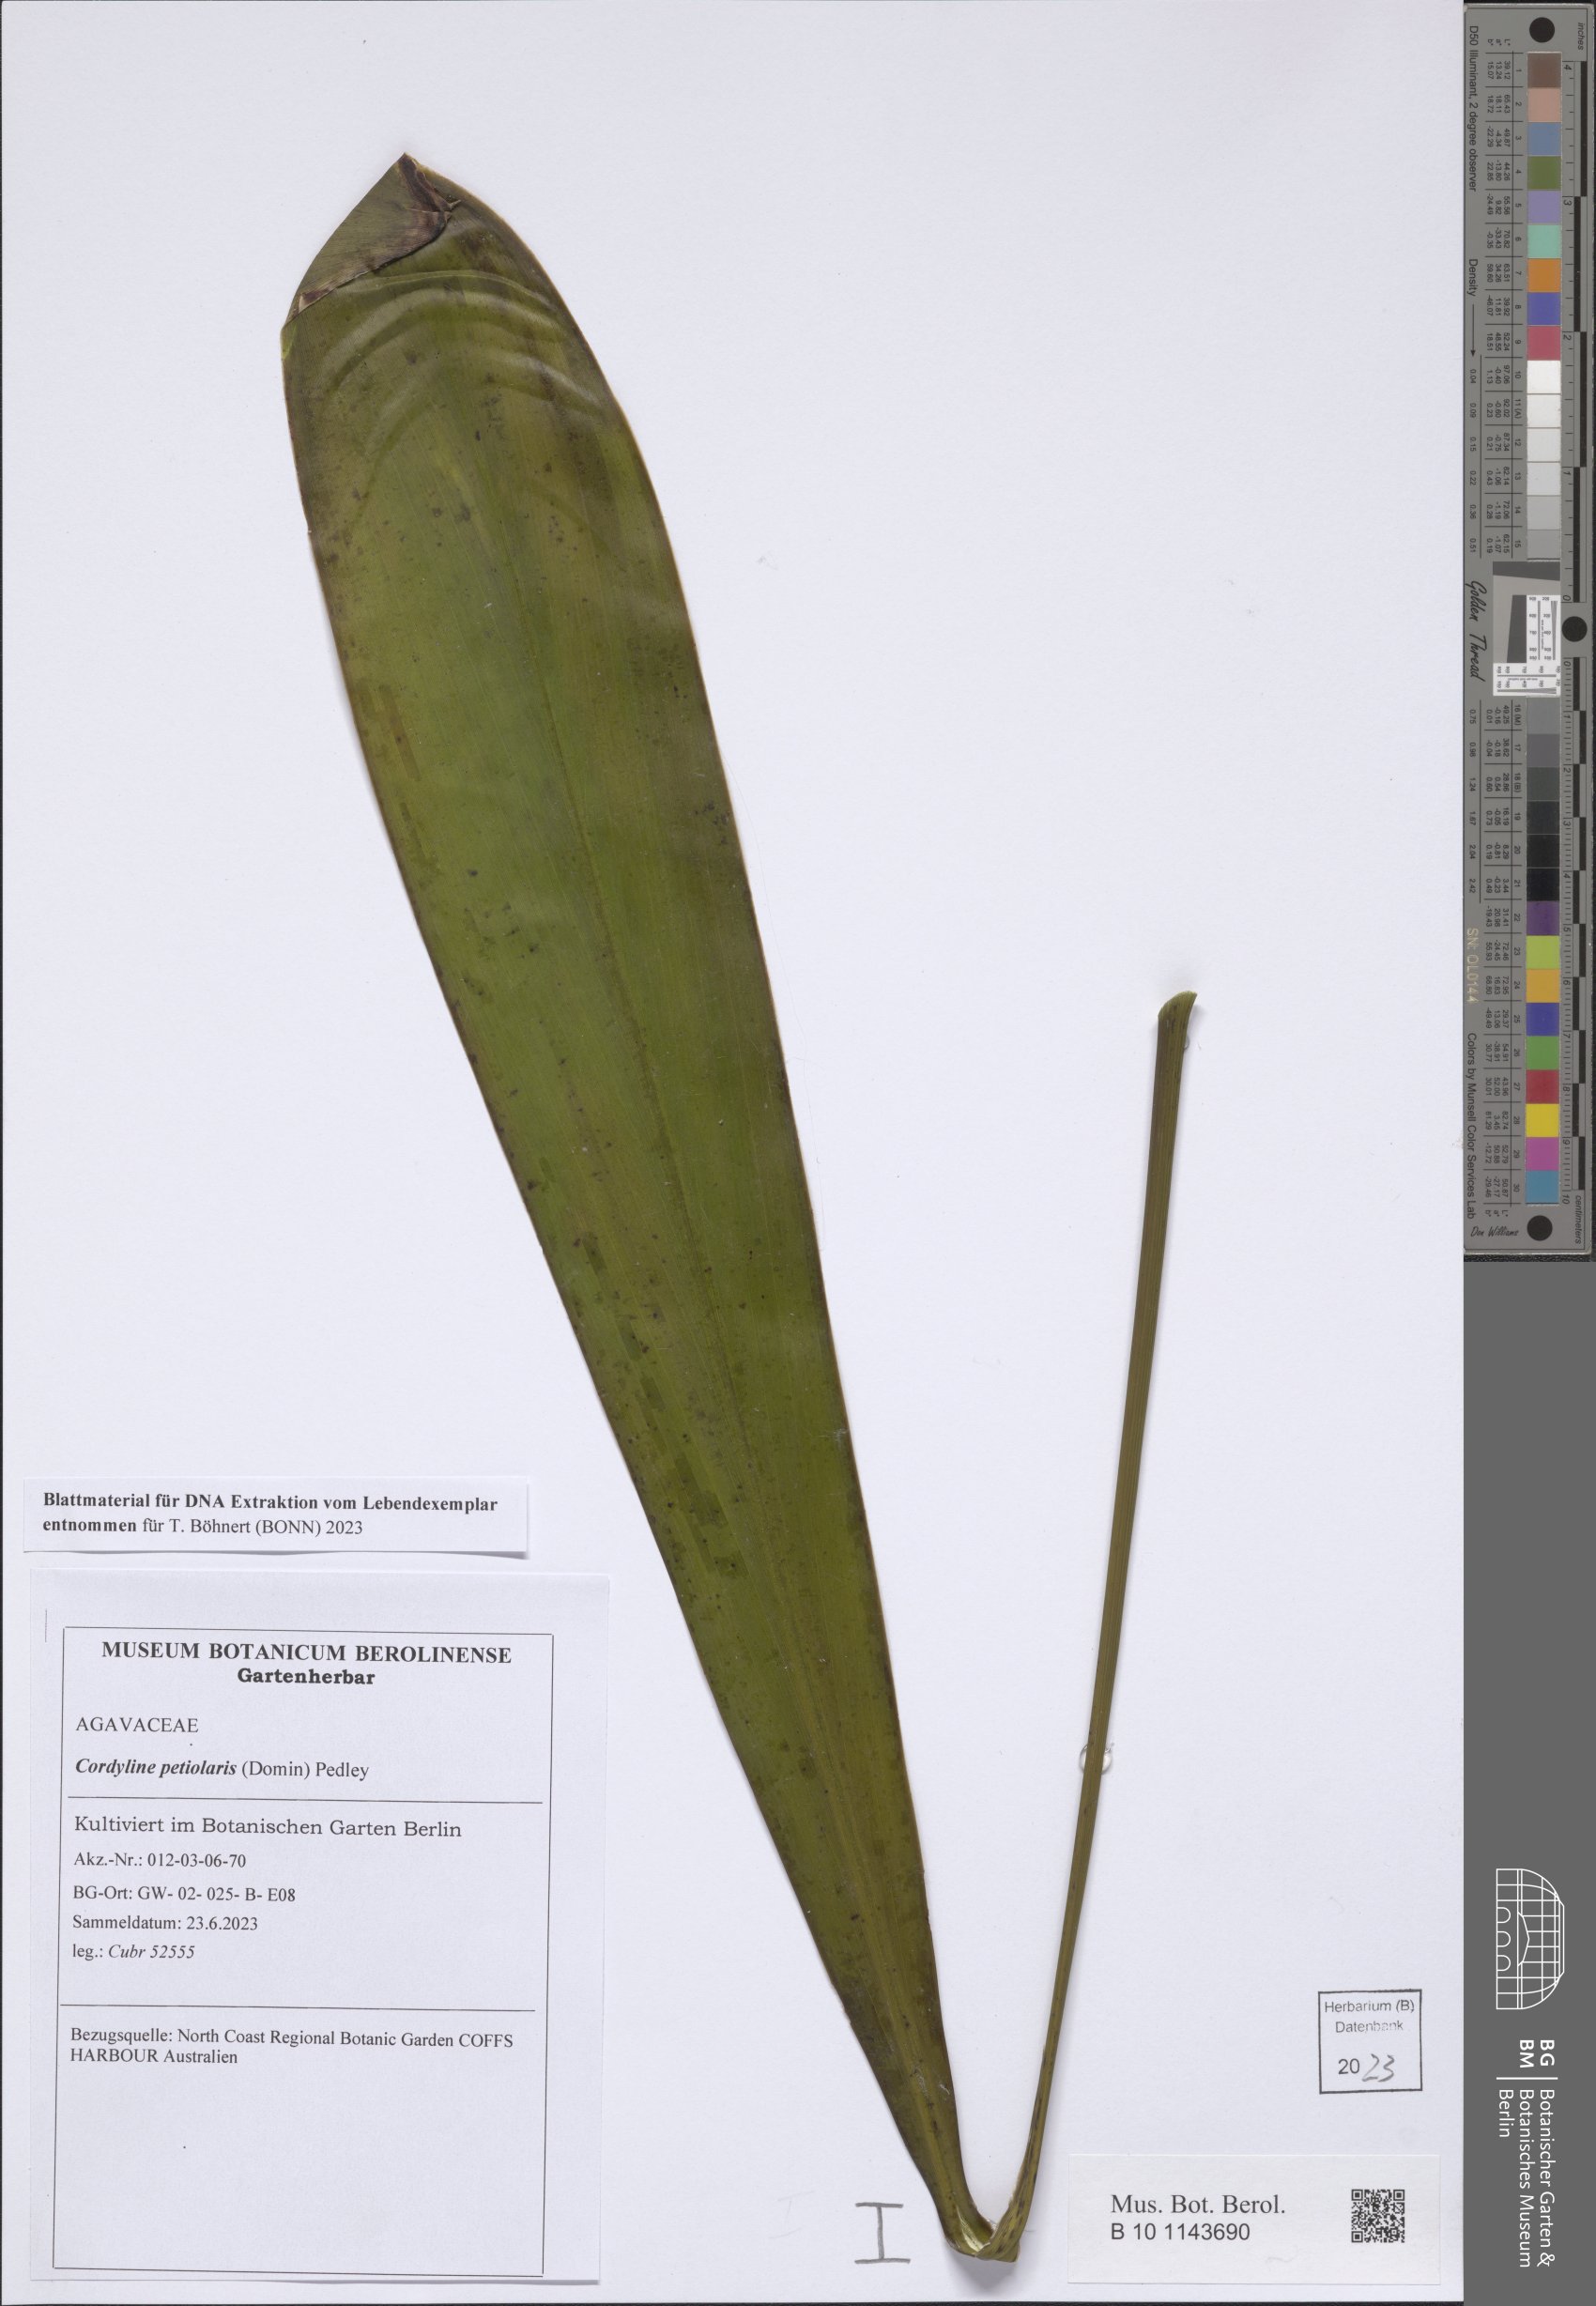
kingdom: Plantae
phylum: Tracheophyta
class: Liliopsida
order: Asparagales
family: Asparagaceae
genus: Cordyline
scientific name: Cordyline petiolaris
